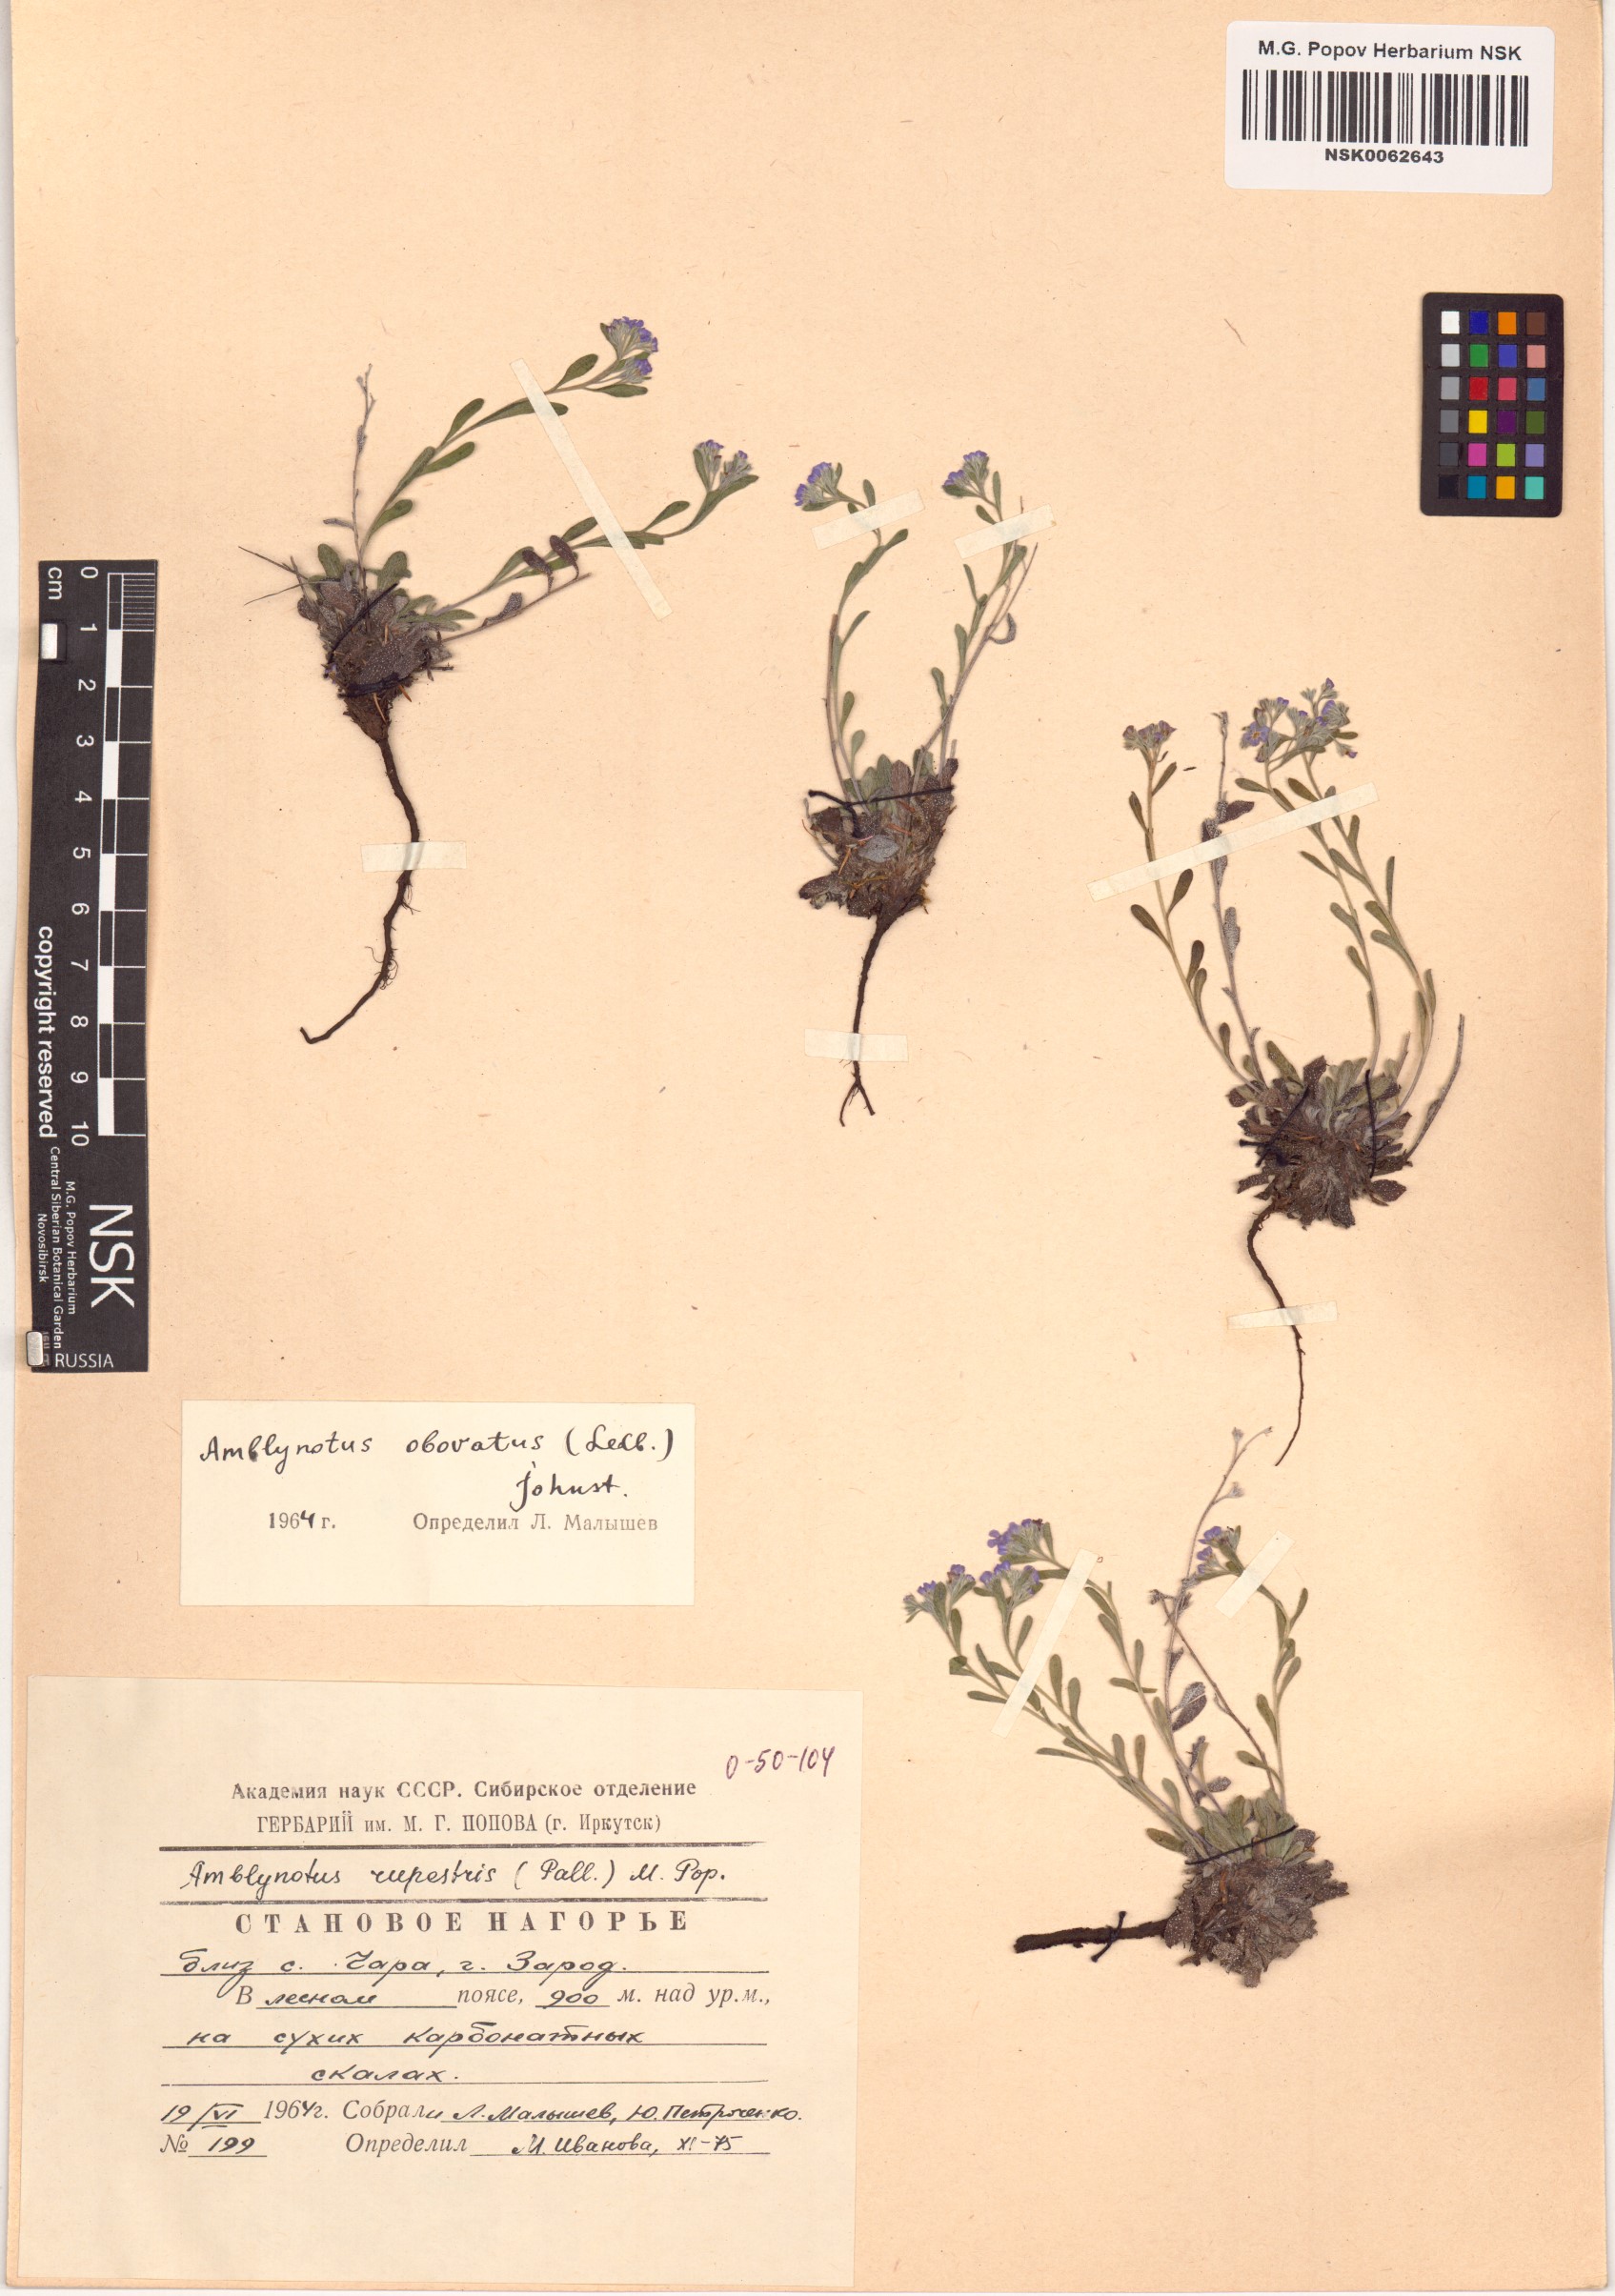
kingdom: Plantae
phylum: Tracheophyta
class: Magnoliopsida
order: Boraginales
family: Boraginaceae
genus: Eritrichium
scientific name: Eritrichium rupestre
